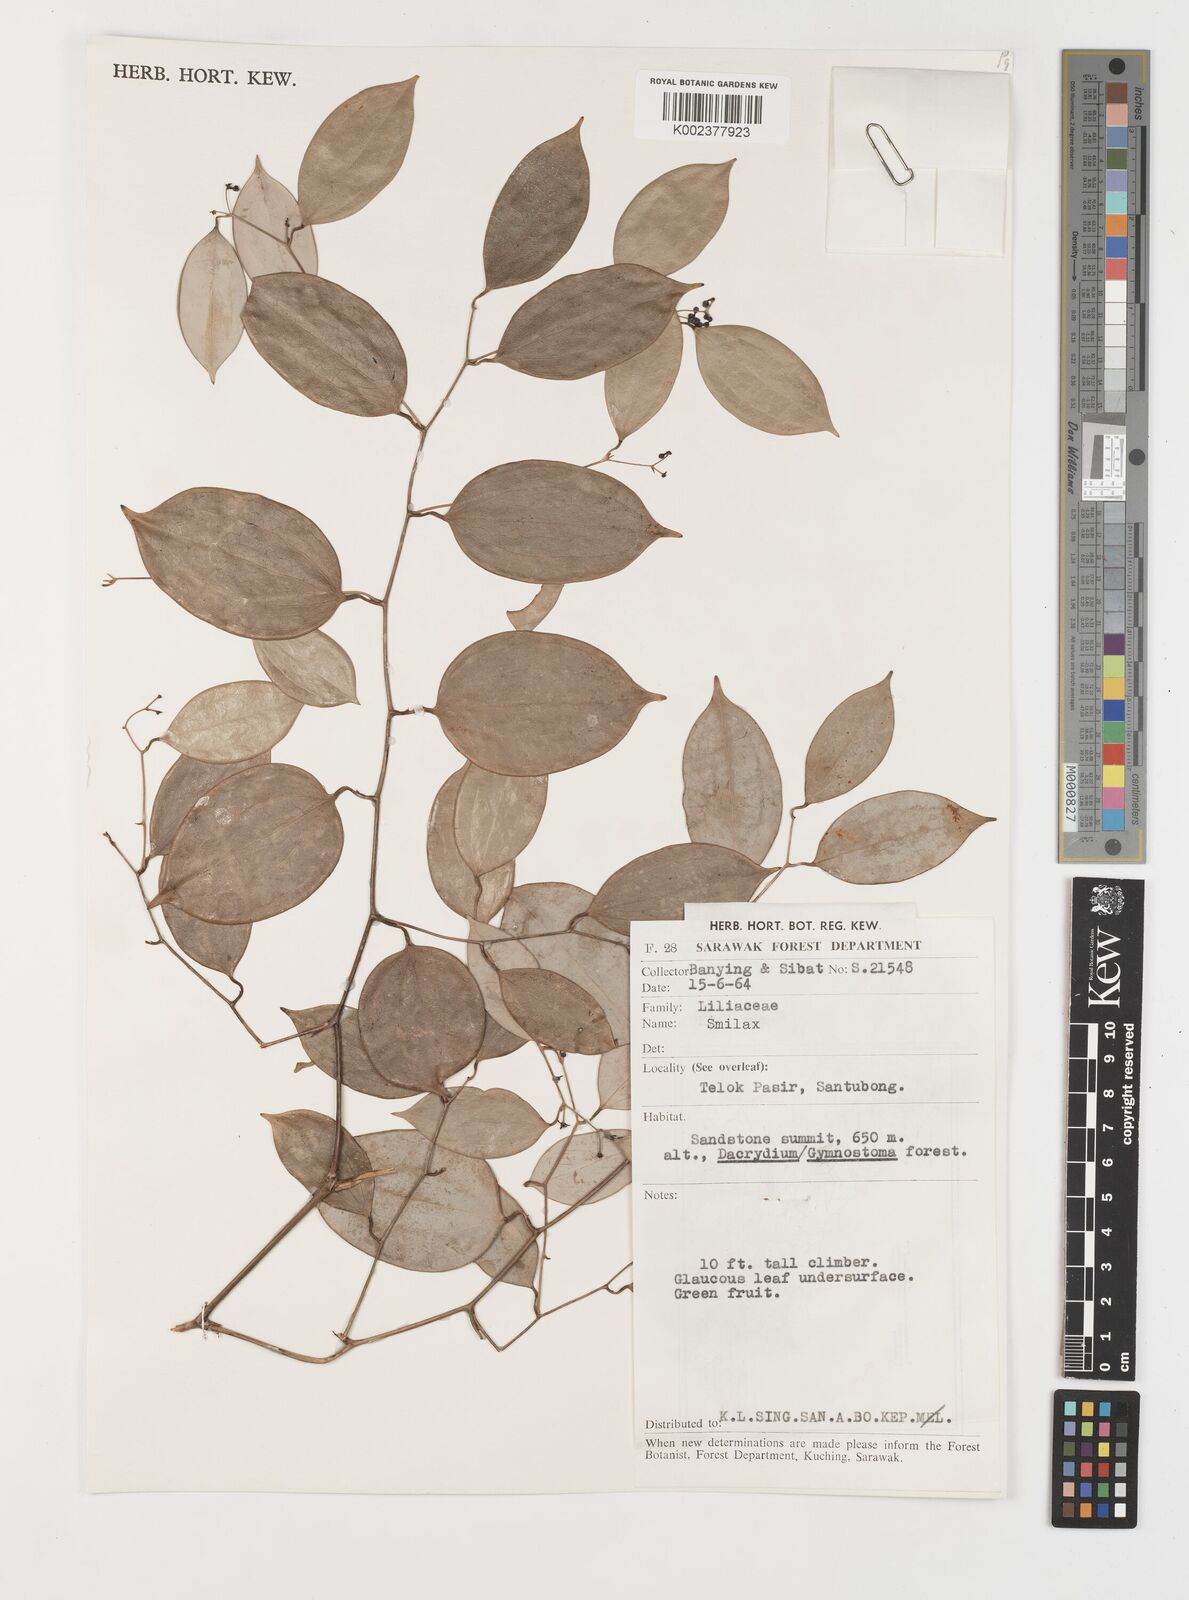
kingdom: Plantae
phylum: Tracheophyta
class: Liliopsida
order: Liliales
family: Smilacaceae
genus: Smilax
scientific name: Smilax
